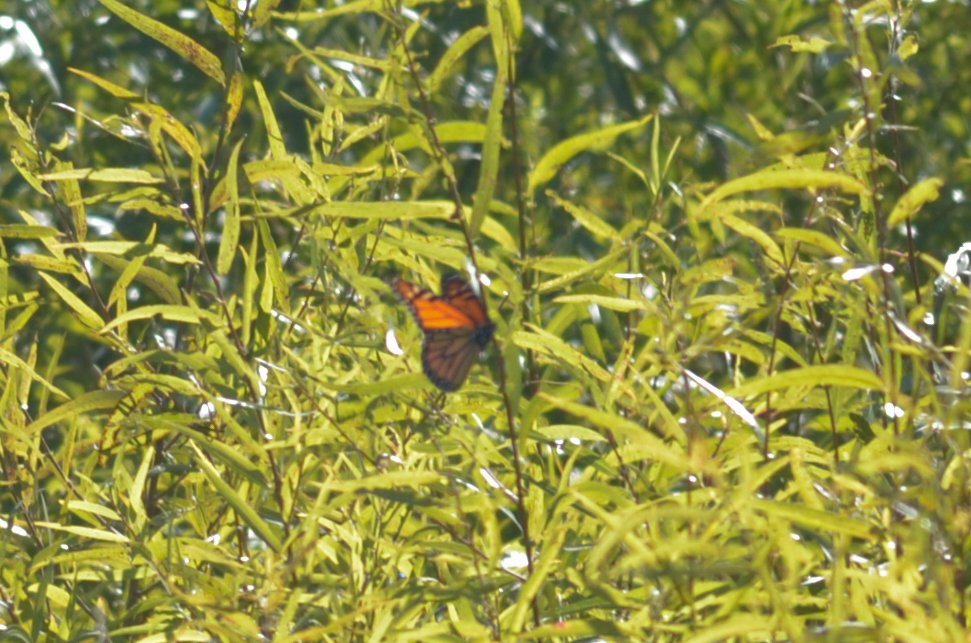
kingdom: Animalia
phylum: Arthropoda
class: Insecta
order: Lepidoptera
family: Nymphalidae
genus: Danaus
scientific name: Danaus plexippus
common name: Monarch
